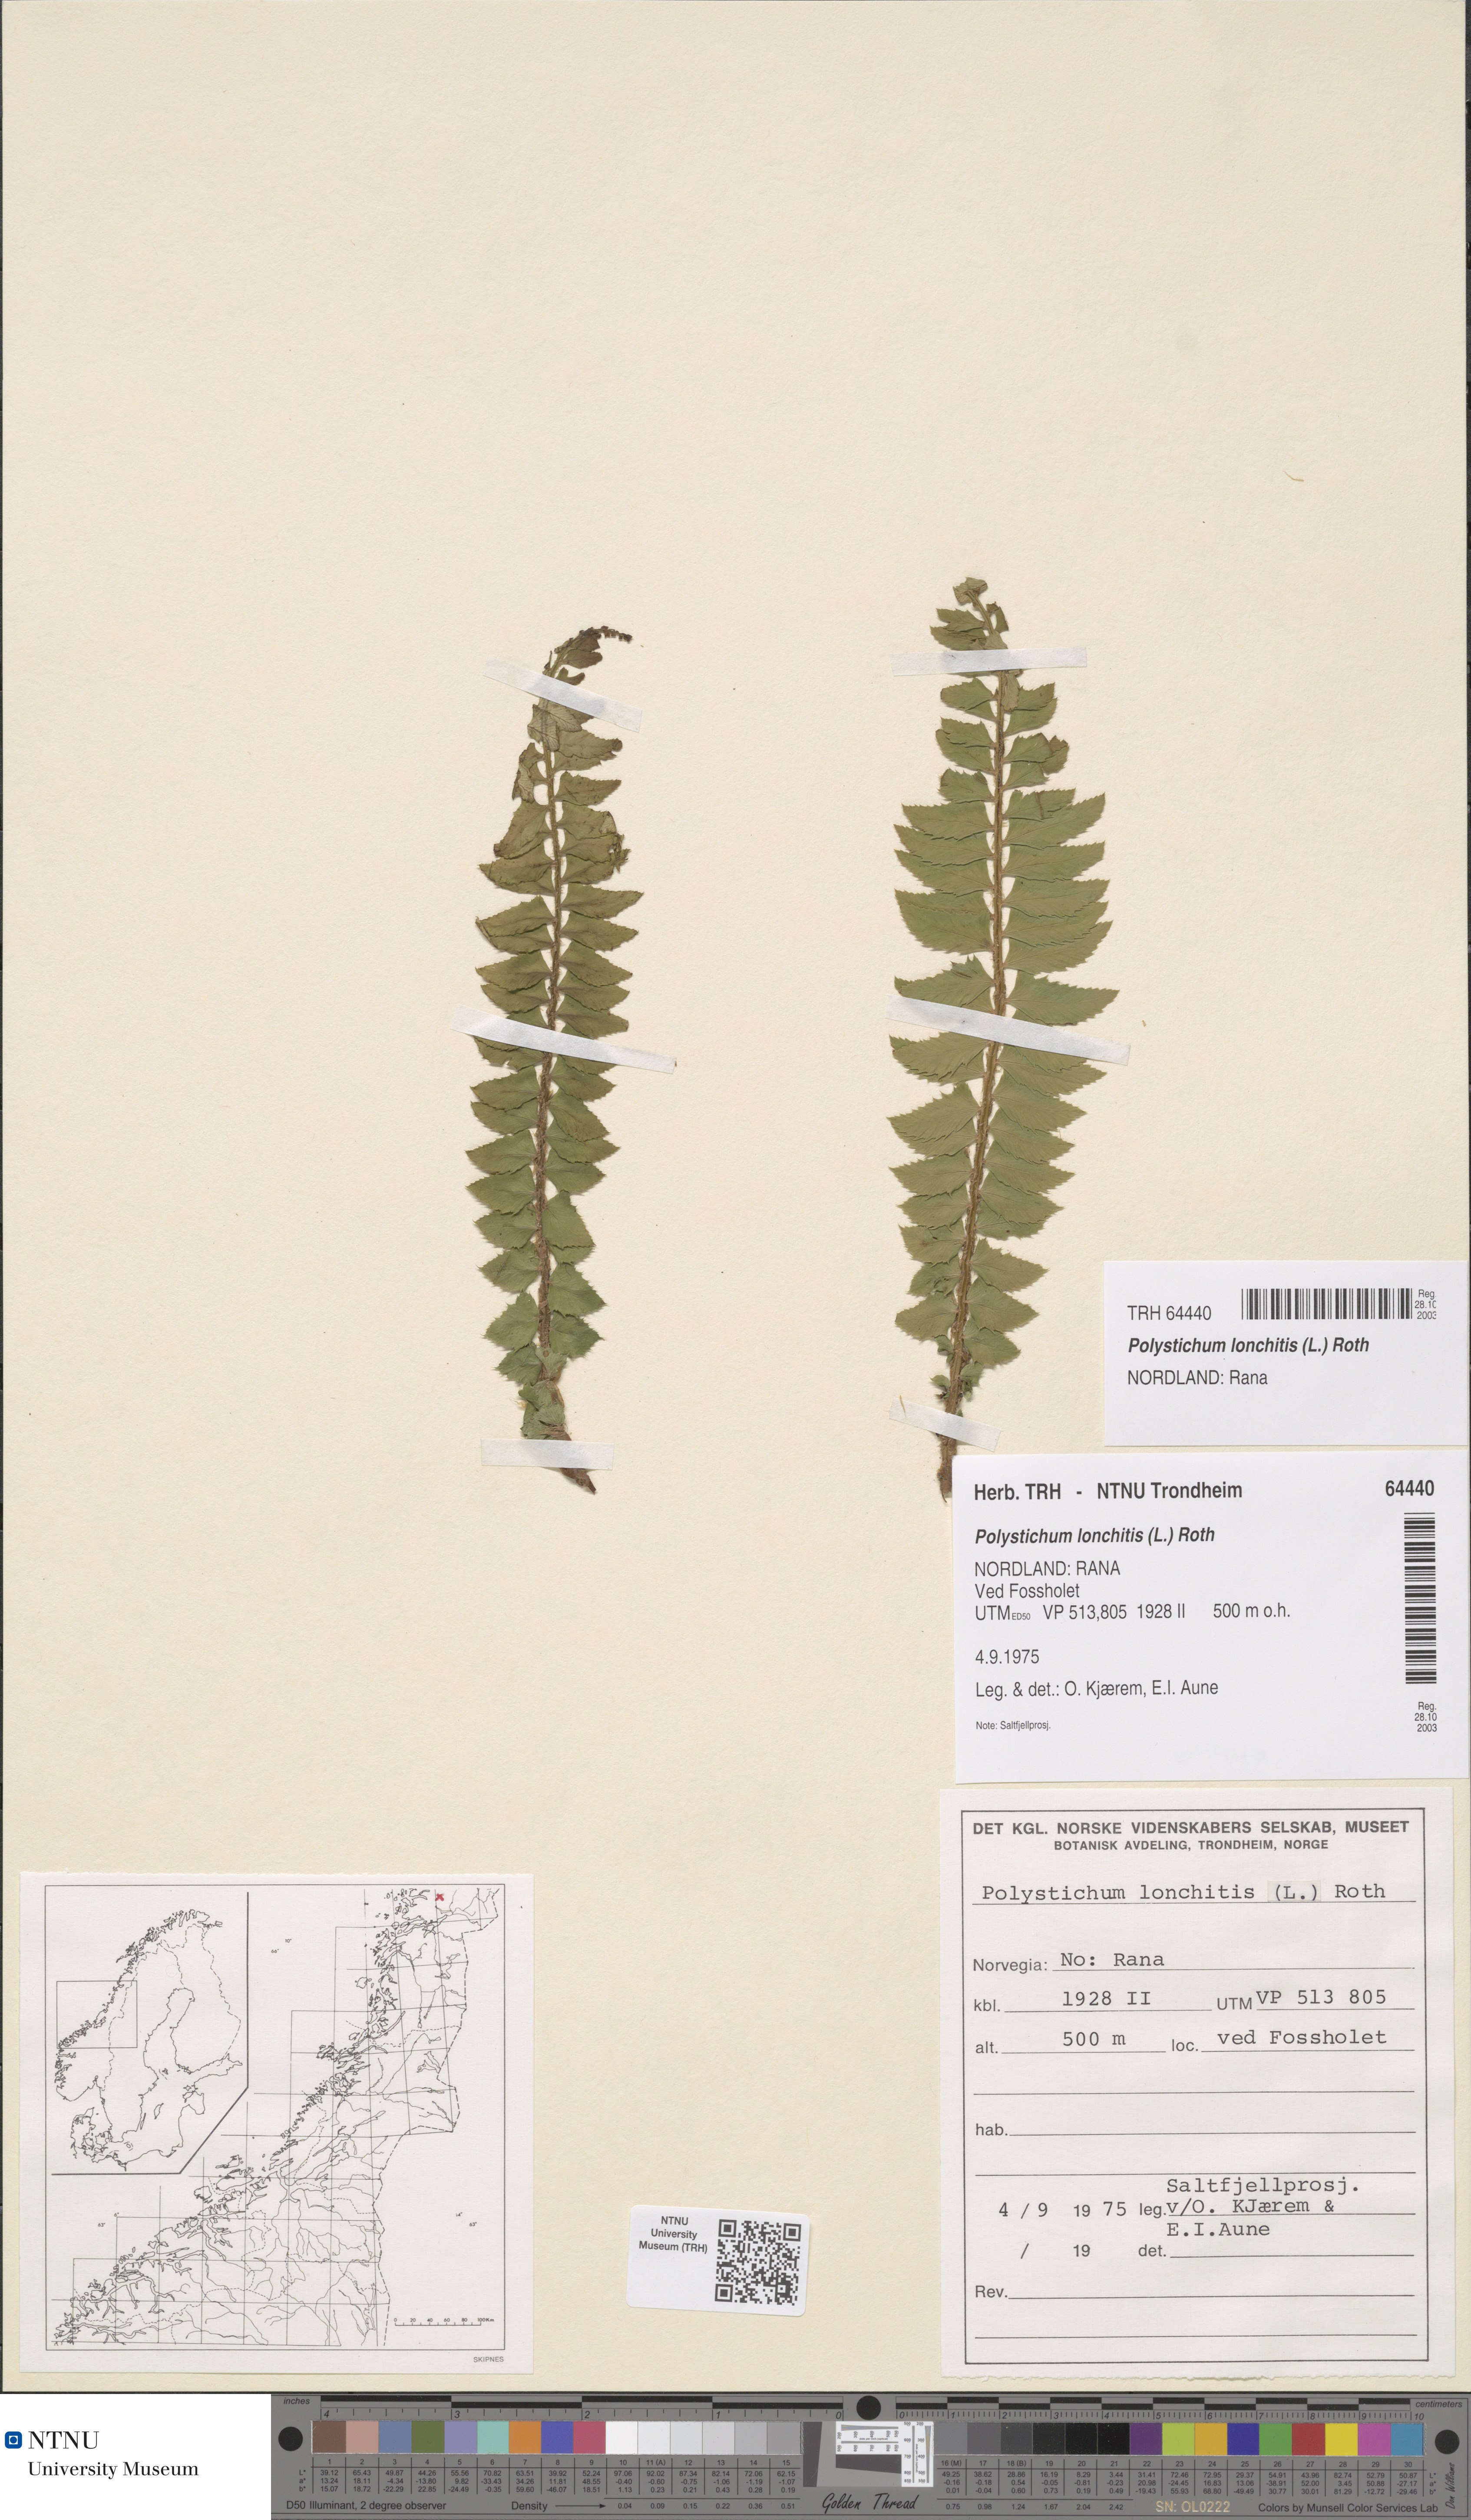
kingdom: Plantae
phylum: Tracheophyta
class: Polypodiopsida
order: Polypodiales
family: Dryopteridaceae
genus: Polystichum
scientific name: Polystichum lonchitis
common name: Holly fern
